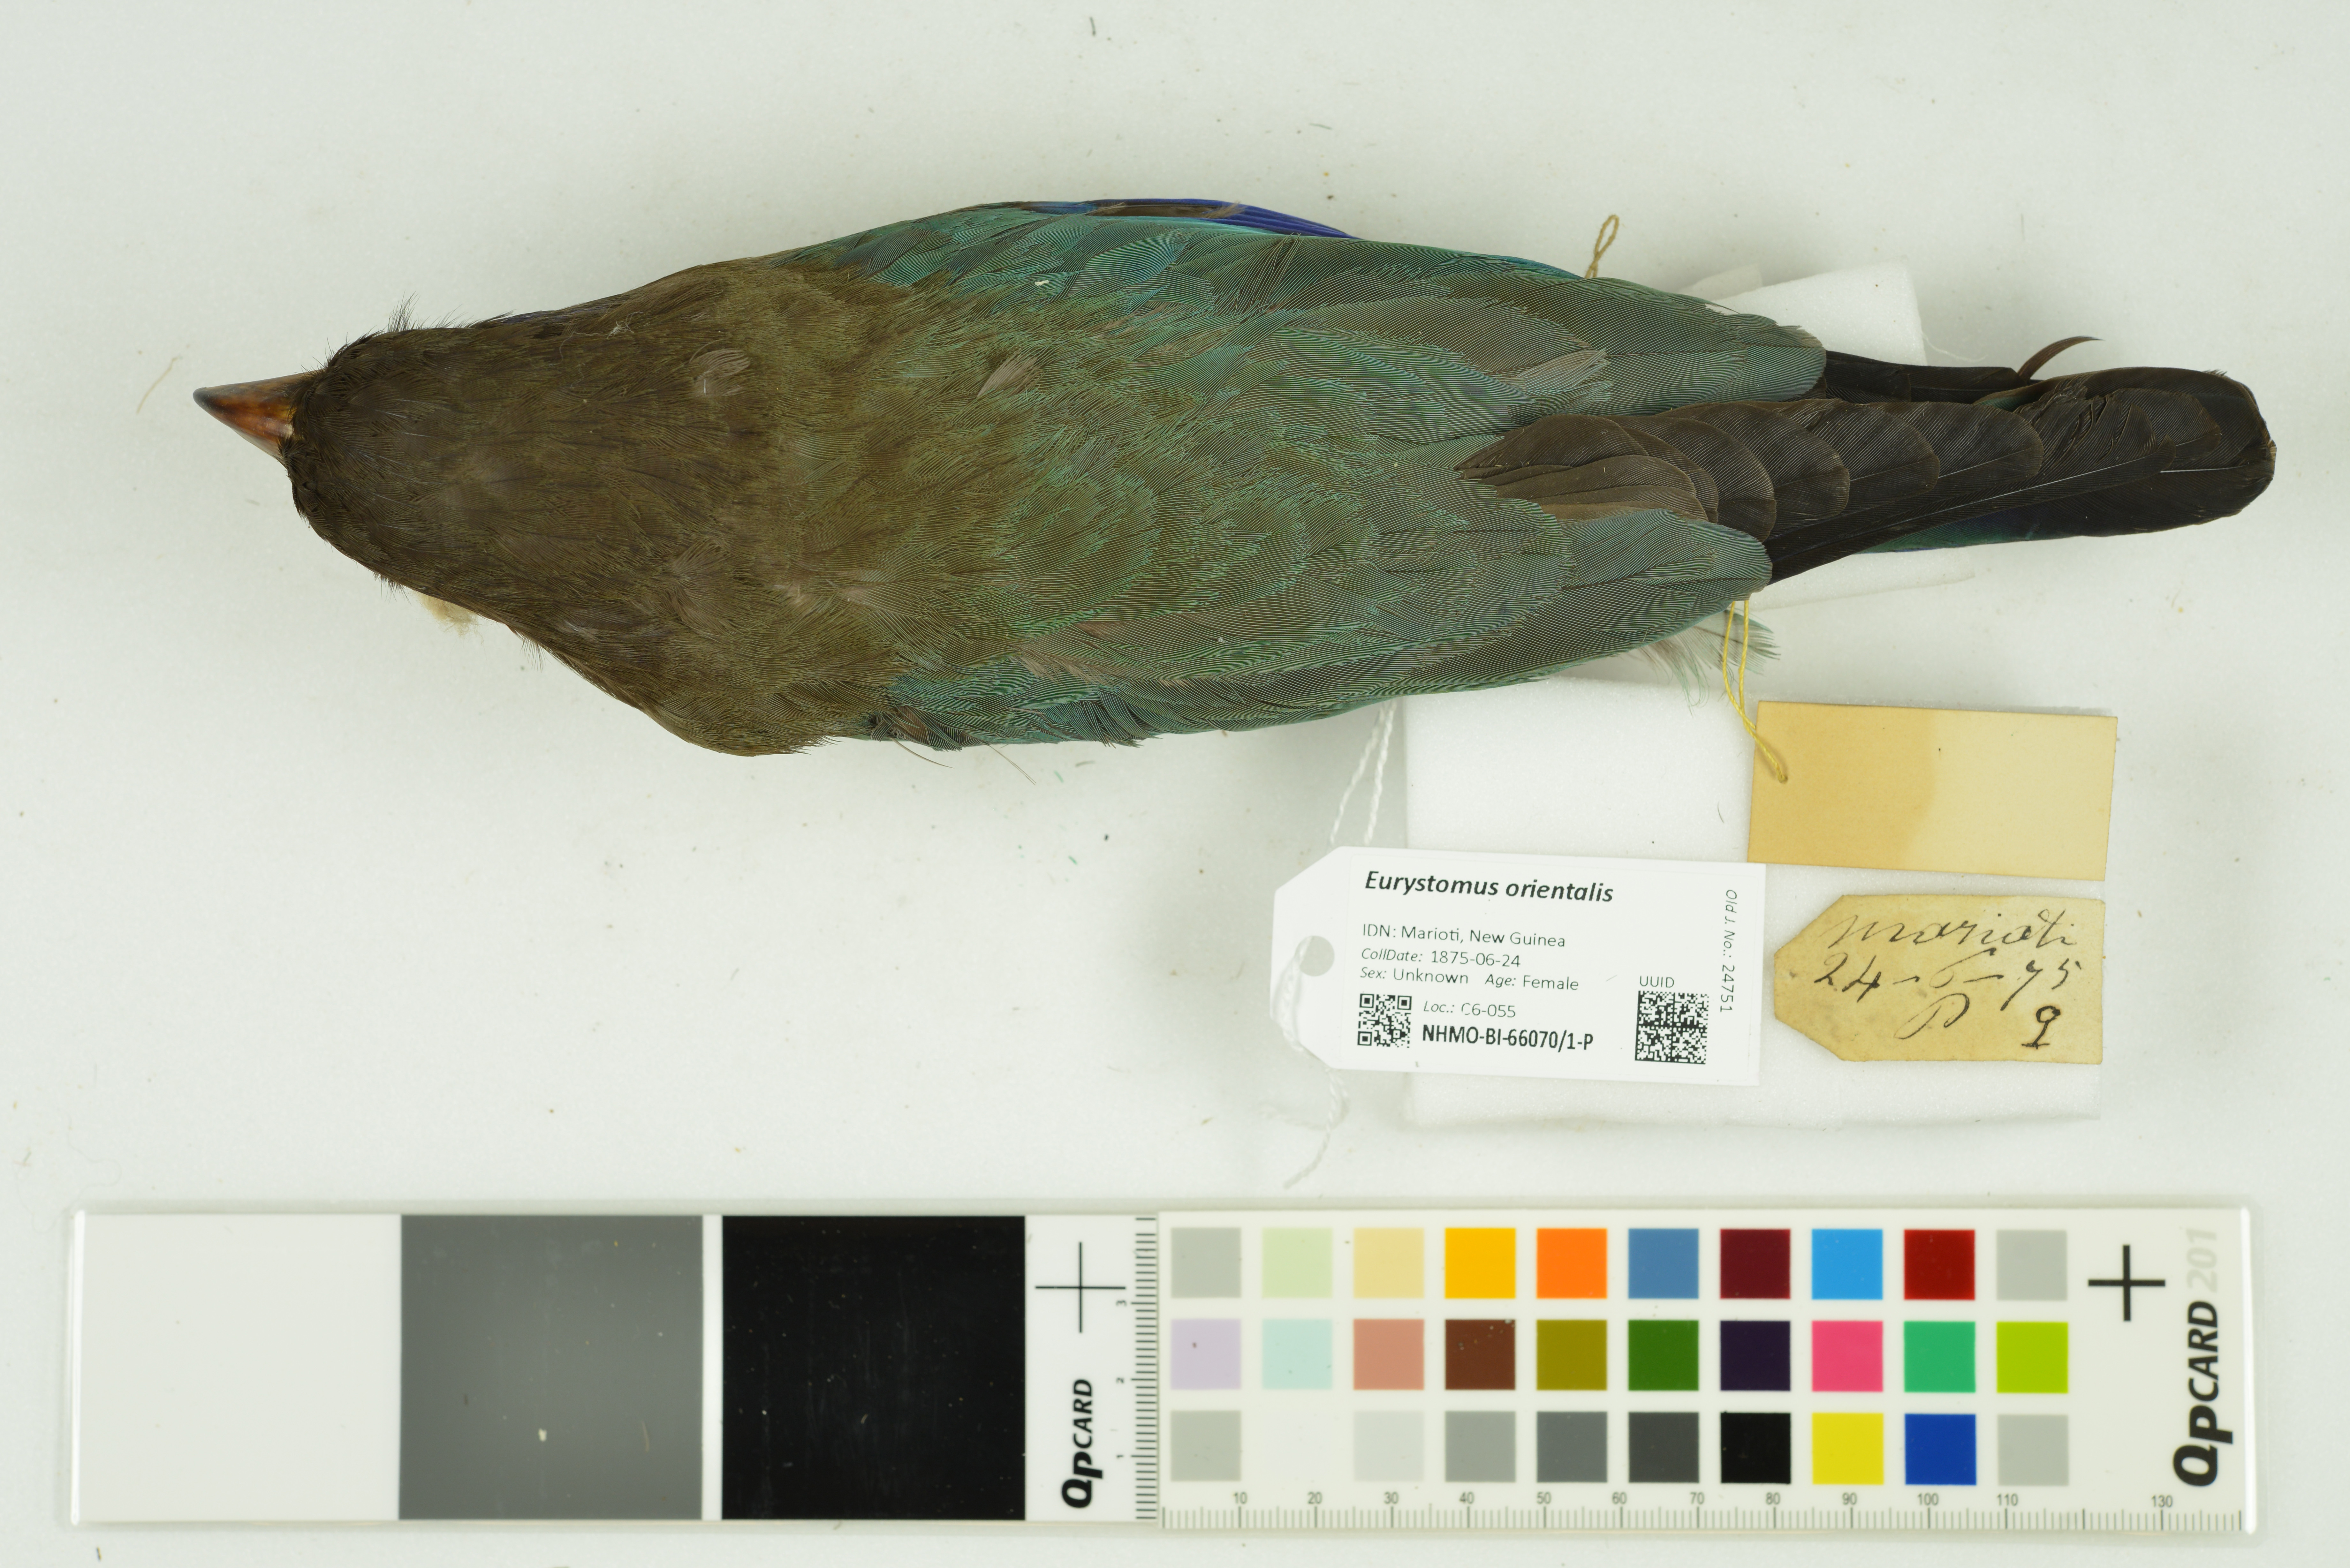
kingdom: Animalia
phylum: Chordata
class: Aves
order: Coraciiformes
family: Coraciidae
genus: Eurystomus
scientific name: Eurystomus orientalis
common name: Oriental dollarbird
